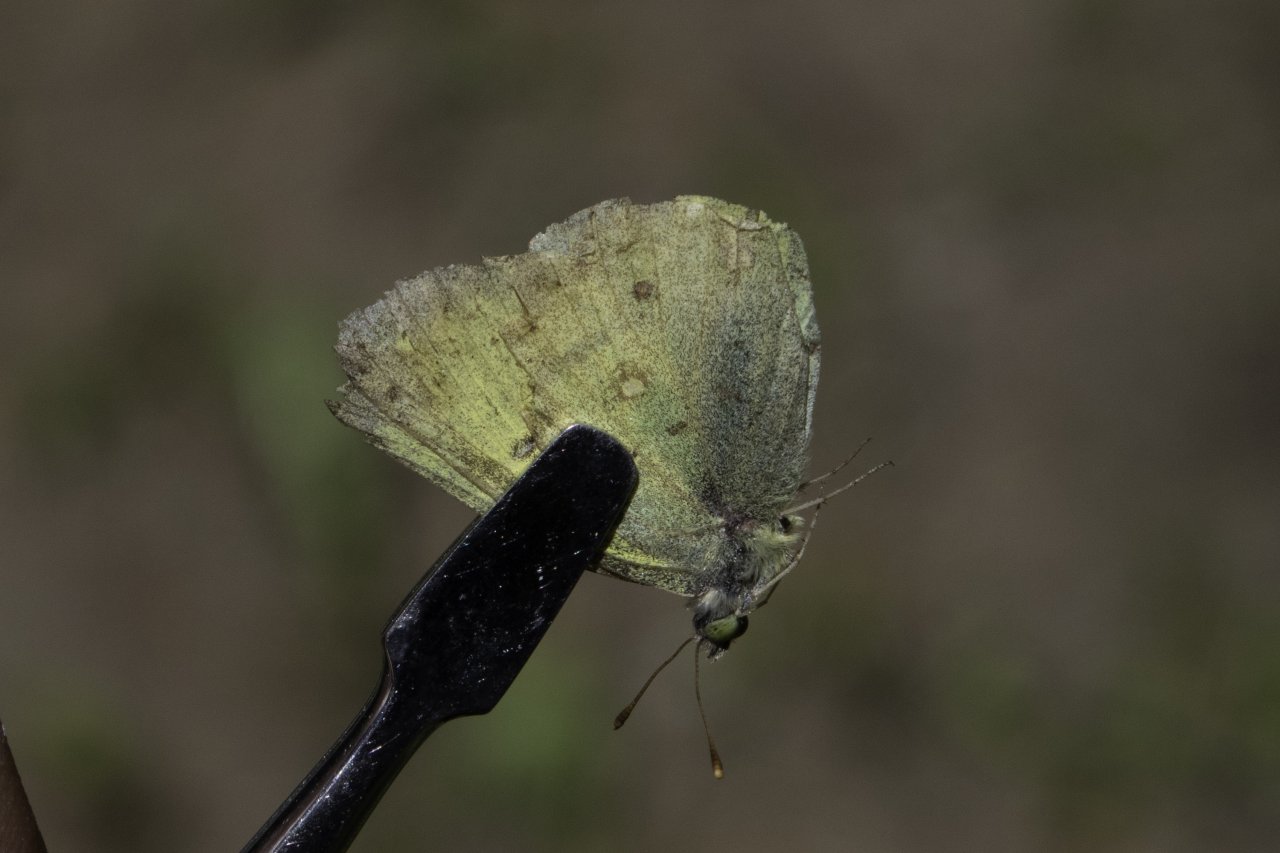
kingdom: Animalia
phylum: Arthropoda
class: Insecta
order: Lepidoptera
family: Pieridae
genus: Colias
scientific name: Colias philodice
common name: Clouded Sulphur
